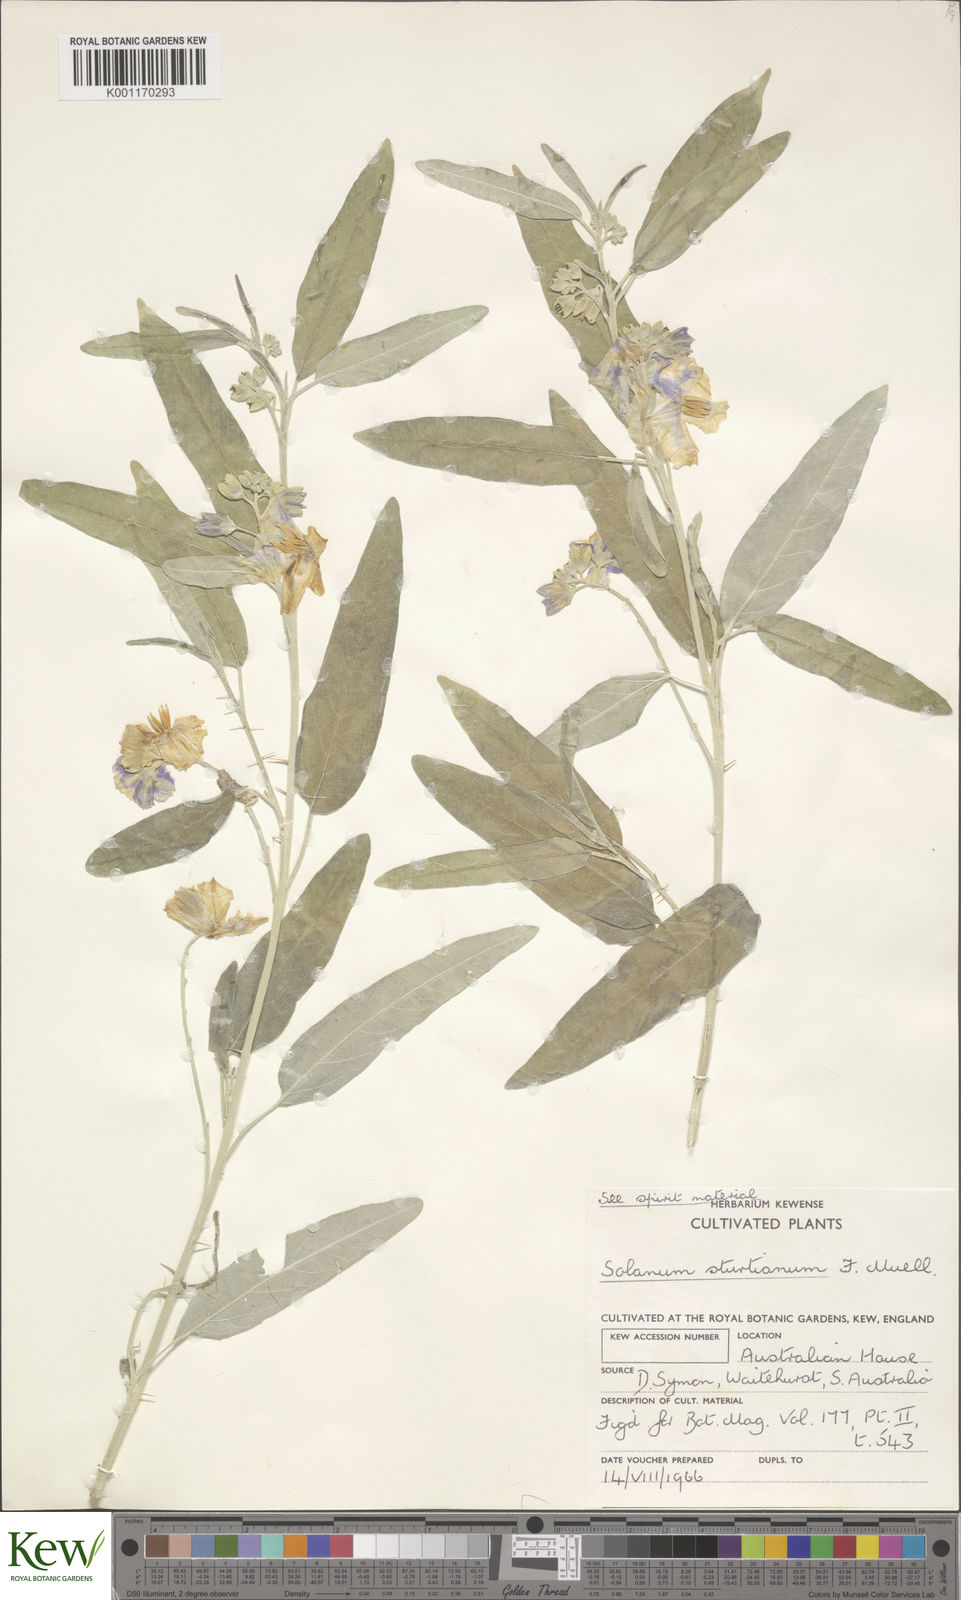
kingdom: Plantae
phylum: Tracheophyta
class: Magnoliopsida
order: Solanales
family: Solanaceae
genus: Solanum
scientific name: Solanum sturtianum
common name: Thargomindah nightshade
